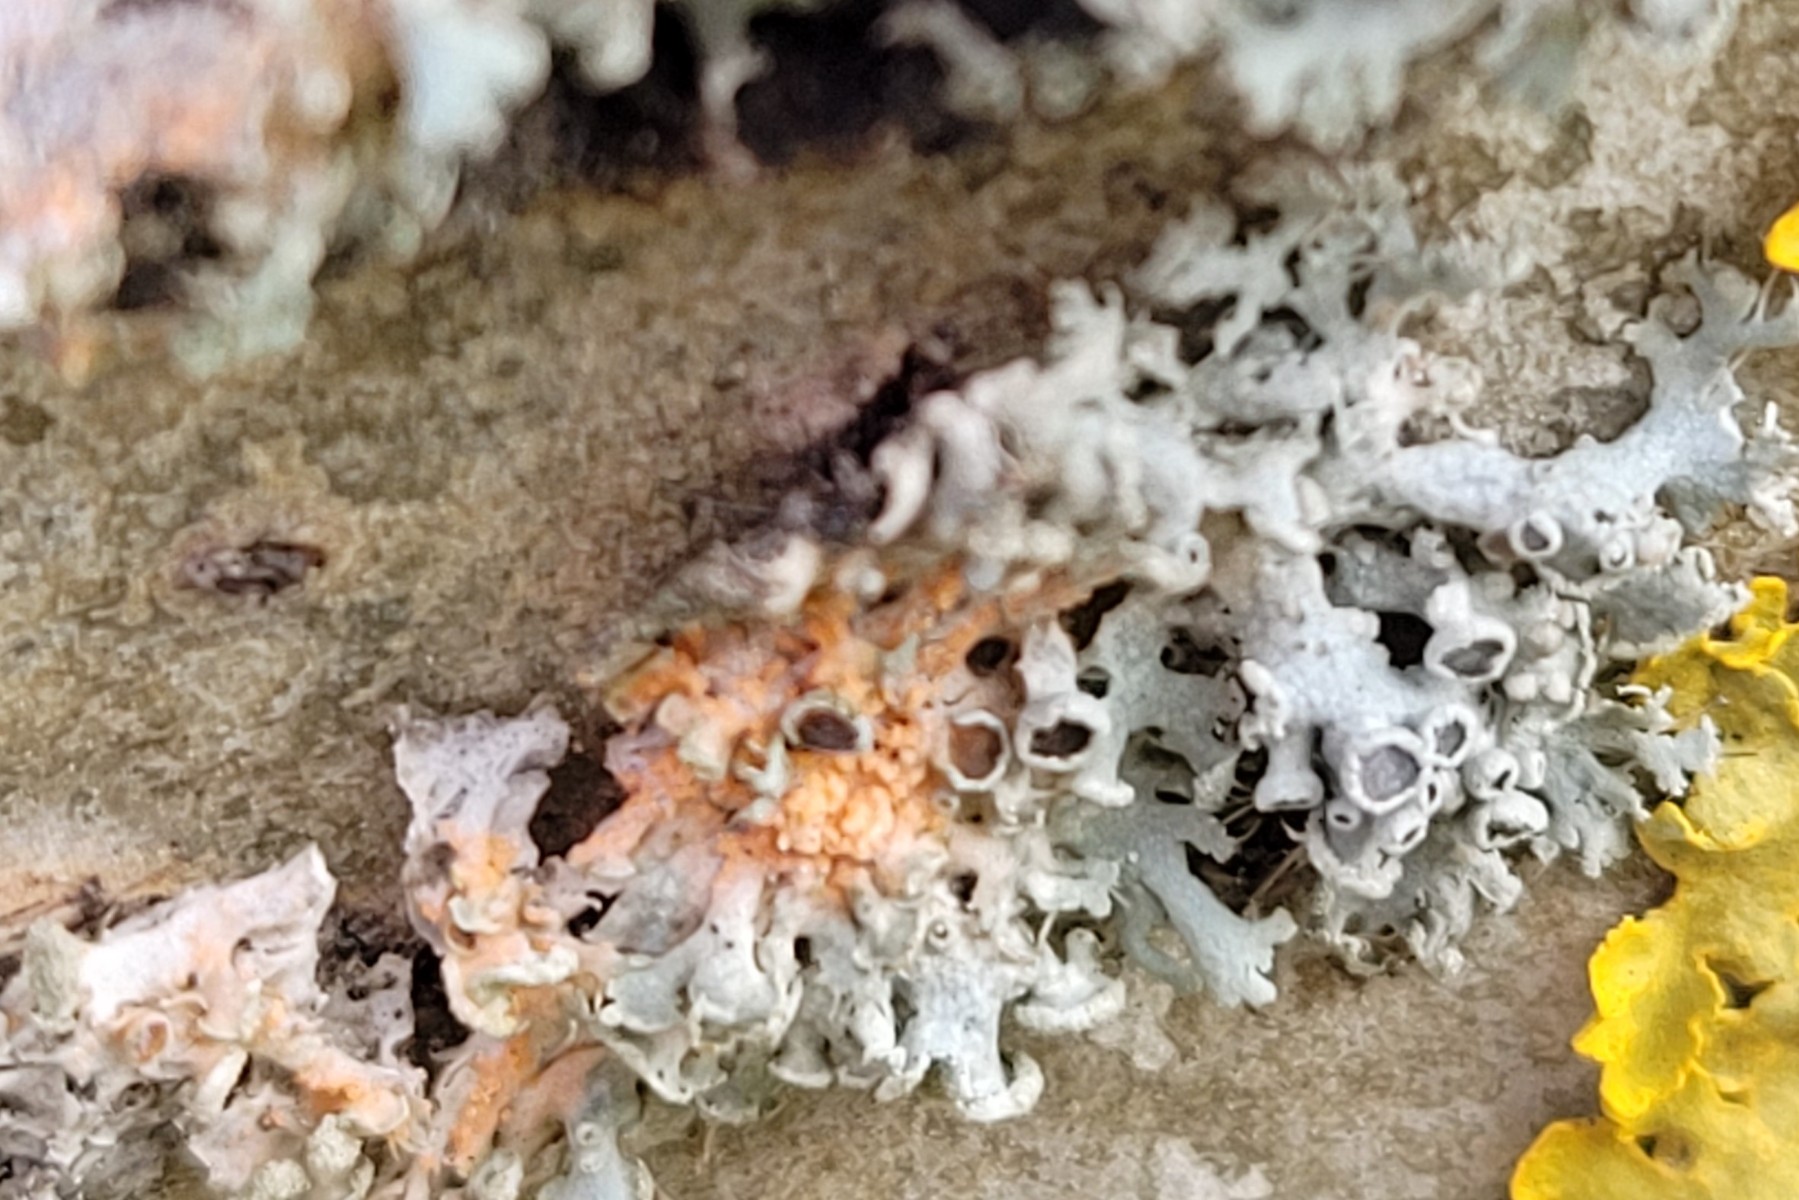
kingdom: Fungi
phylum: Basidiomycota
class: Agaricomycetes
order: Corticiales
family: Corticiaceae
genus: Erythricium
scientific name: Erythricium aurantiacum
